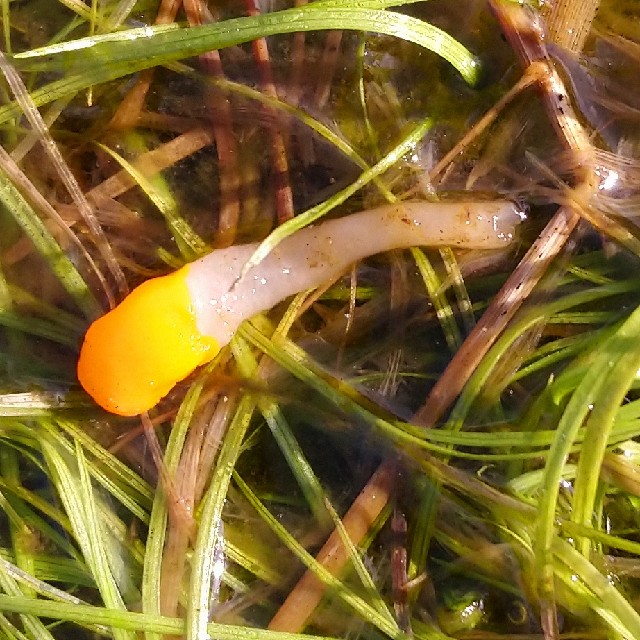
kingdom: Fungi
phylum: Ascomycota
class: Leotiomycetes
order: Helotiales
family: Cenangiaceae
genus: Mitrula
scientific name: Mitrula paludosa
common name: gul nøkketunge
